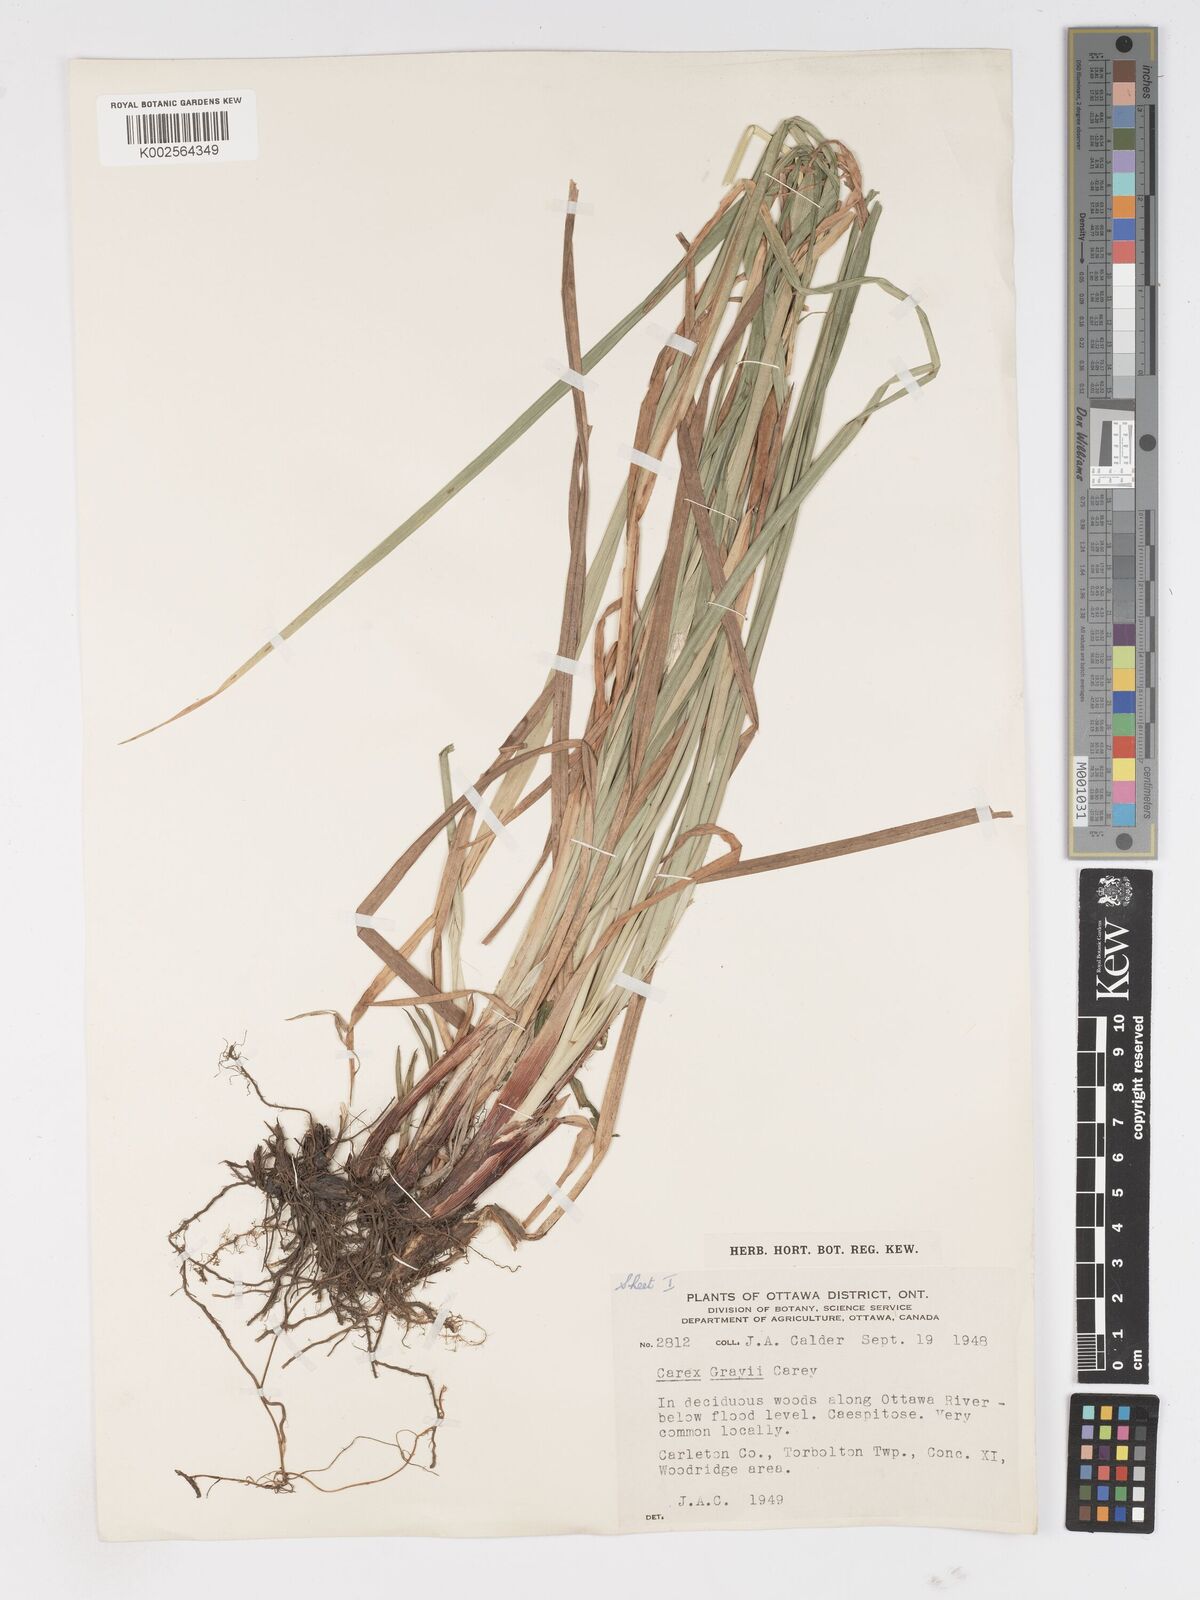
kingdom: Plantae
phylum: Tracheophyta
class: Liliopsida
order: Poales
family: Cyperaceae
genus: Carex
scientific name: Carex grayi
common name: Asa gray's sedge
